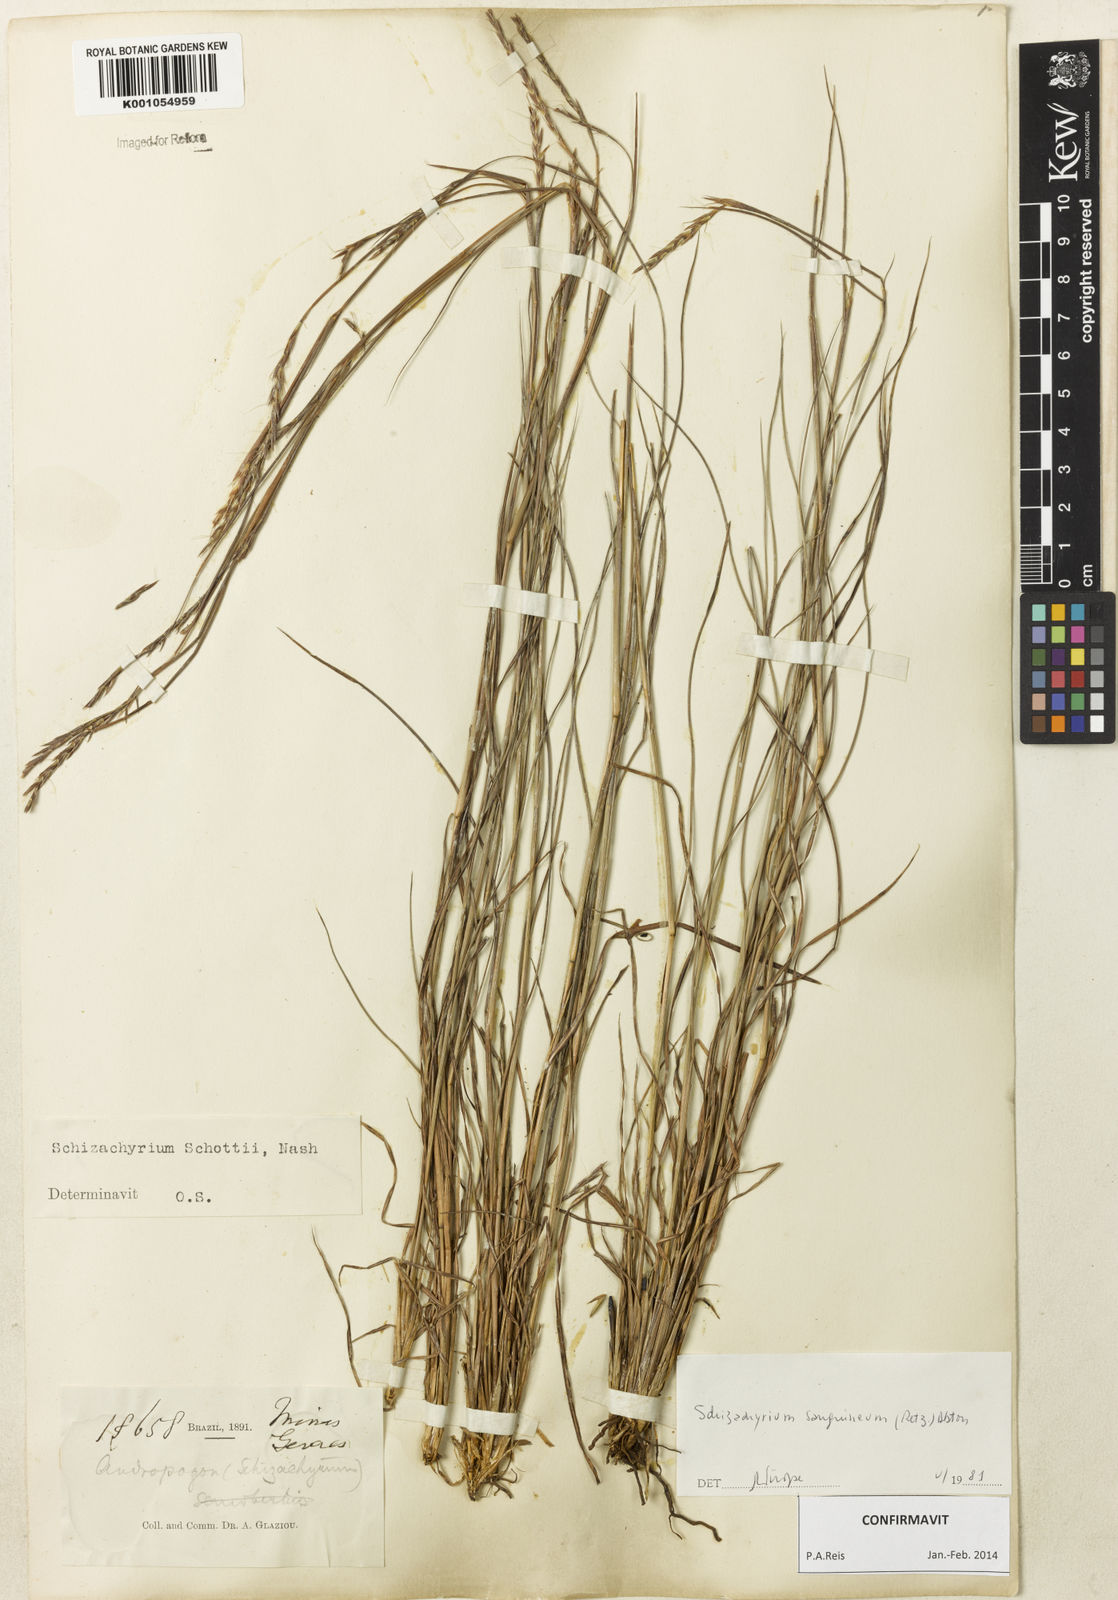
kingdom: Plantae
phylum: Tracheophyta
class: Liliopsida
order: Poales
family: Poaceae
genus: Schizachyrium
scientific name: Schizachyrium sanguineum
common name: Crimson bluestem
